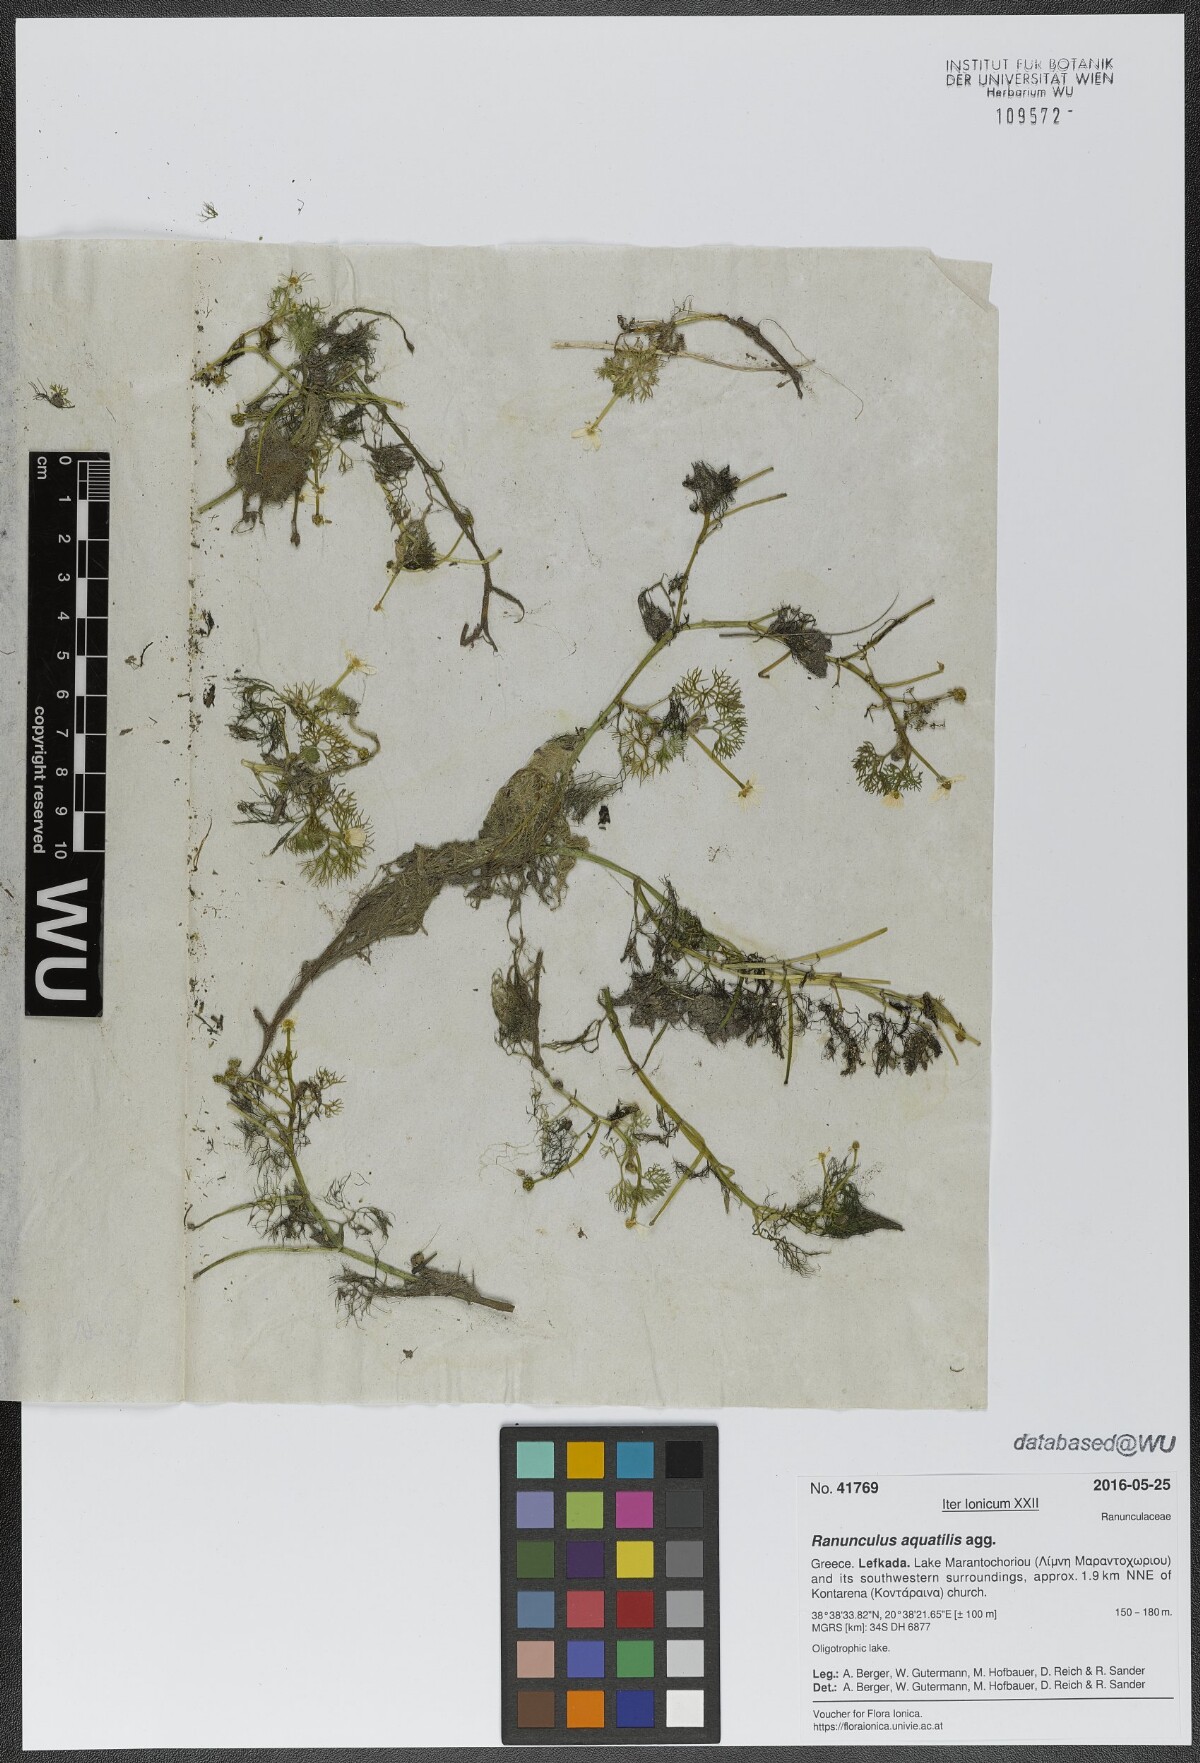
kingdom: Plantae
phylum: Tracheophyta
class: Magnoliopsida
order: Ranunculales
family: Ranunculaceae
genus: Ranunculus
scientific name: Ranunculus aquatilis
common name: Common water-crowfoot
